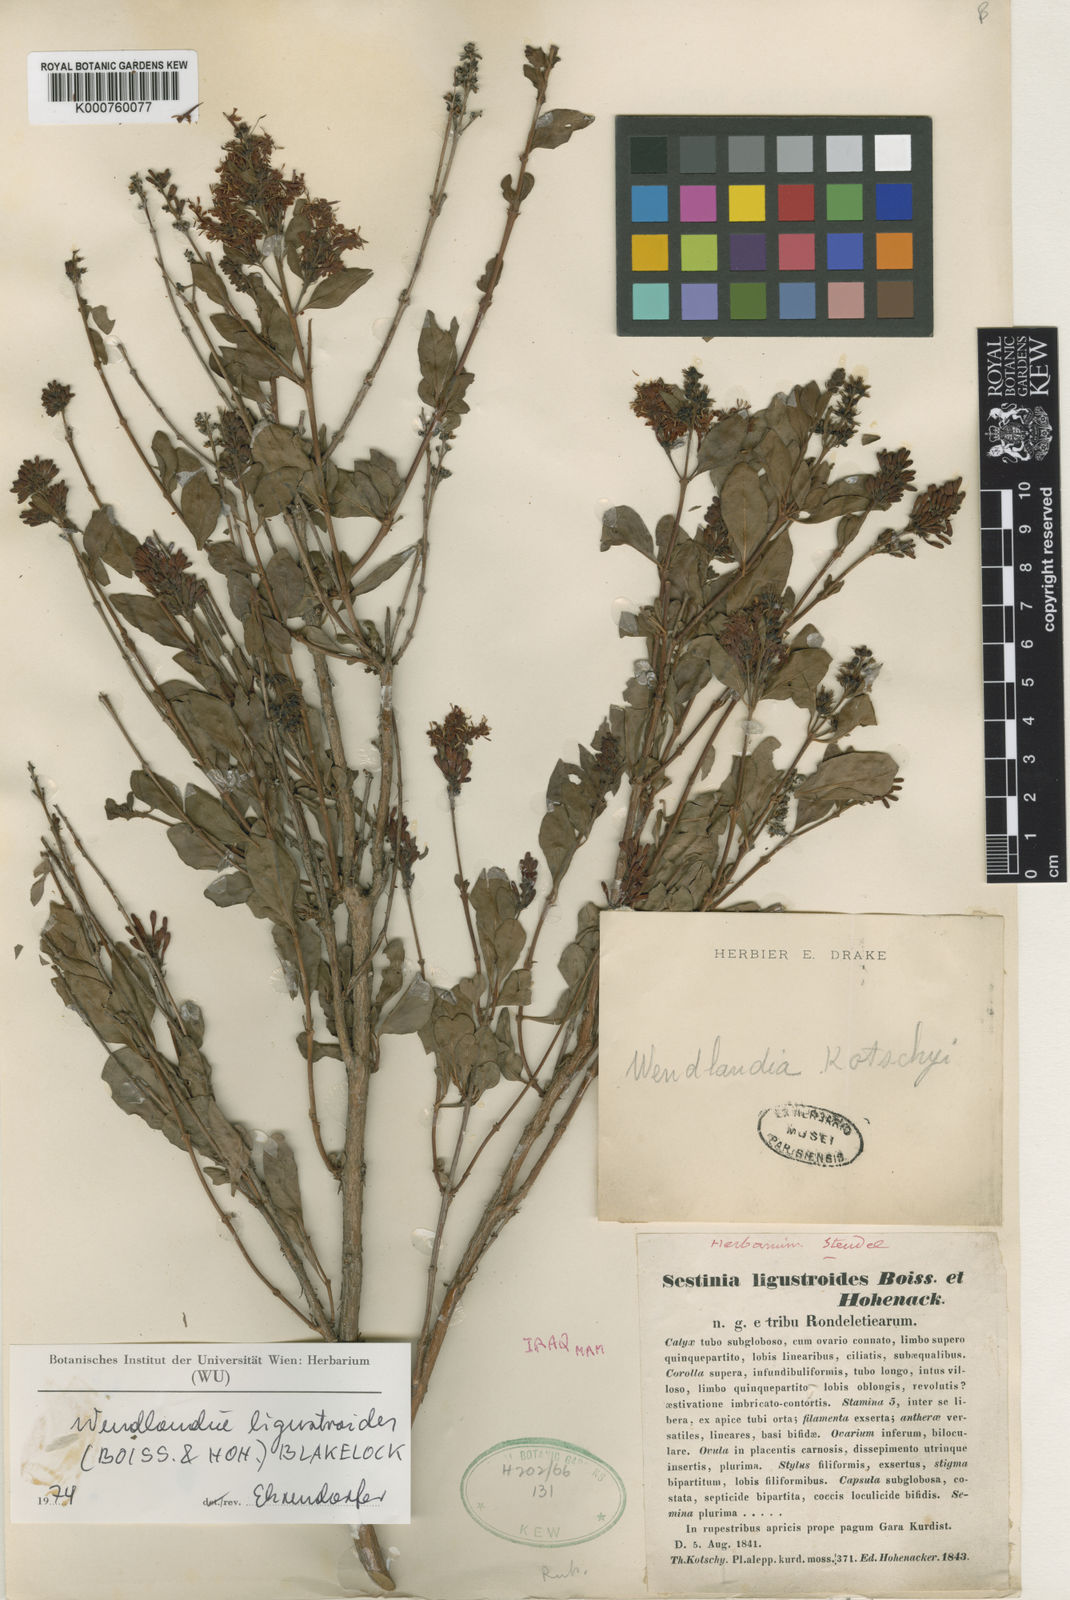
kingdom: Plantae
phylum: Tracheophyta
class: Magnoliopsida
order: Gentianales
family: Rubiaceae
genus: Wendlandia
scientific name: Wendlandia ligustroides
